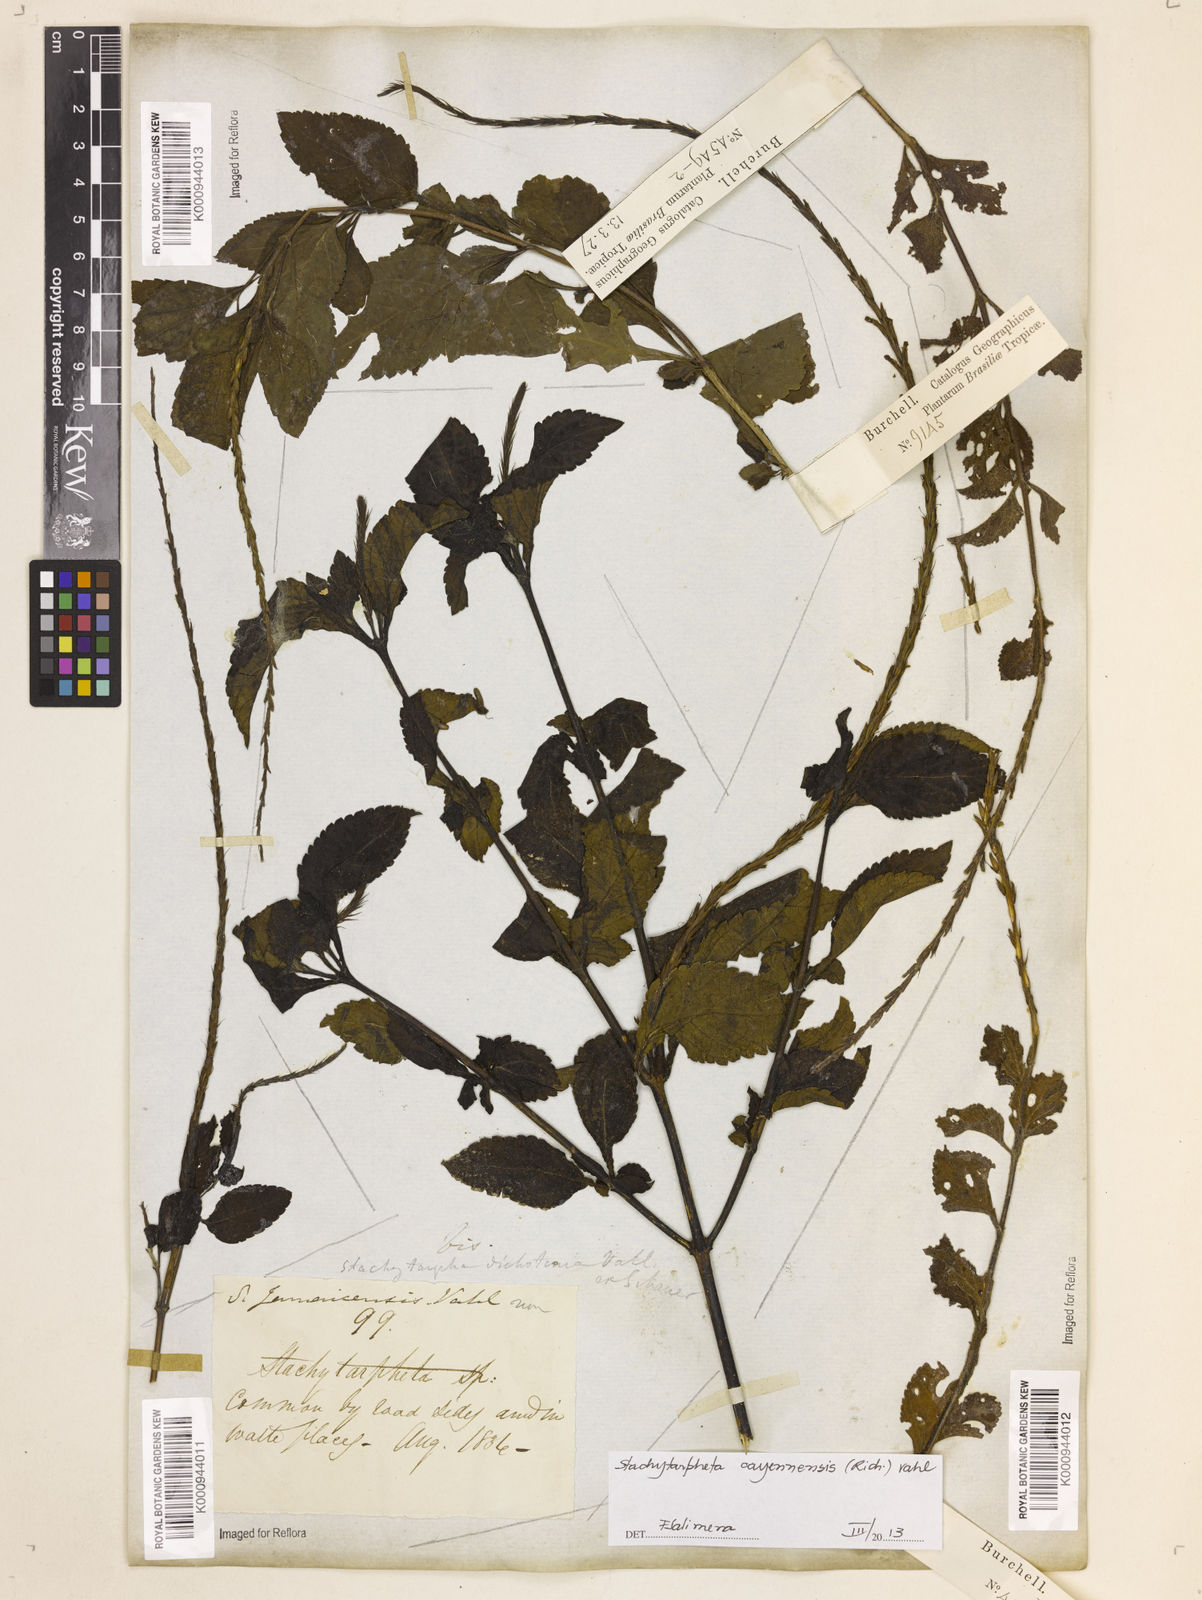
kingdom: Plantae
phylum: Tracheophyta
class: Magnoliopsida
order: Lamiales
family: Verbenaceae
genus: Aloysia
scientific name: Aloysia
